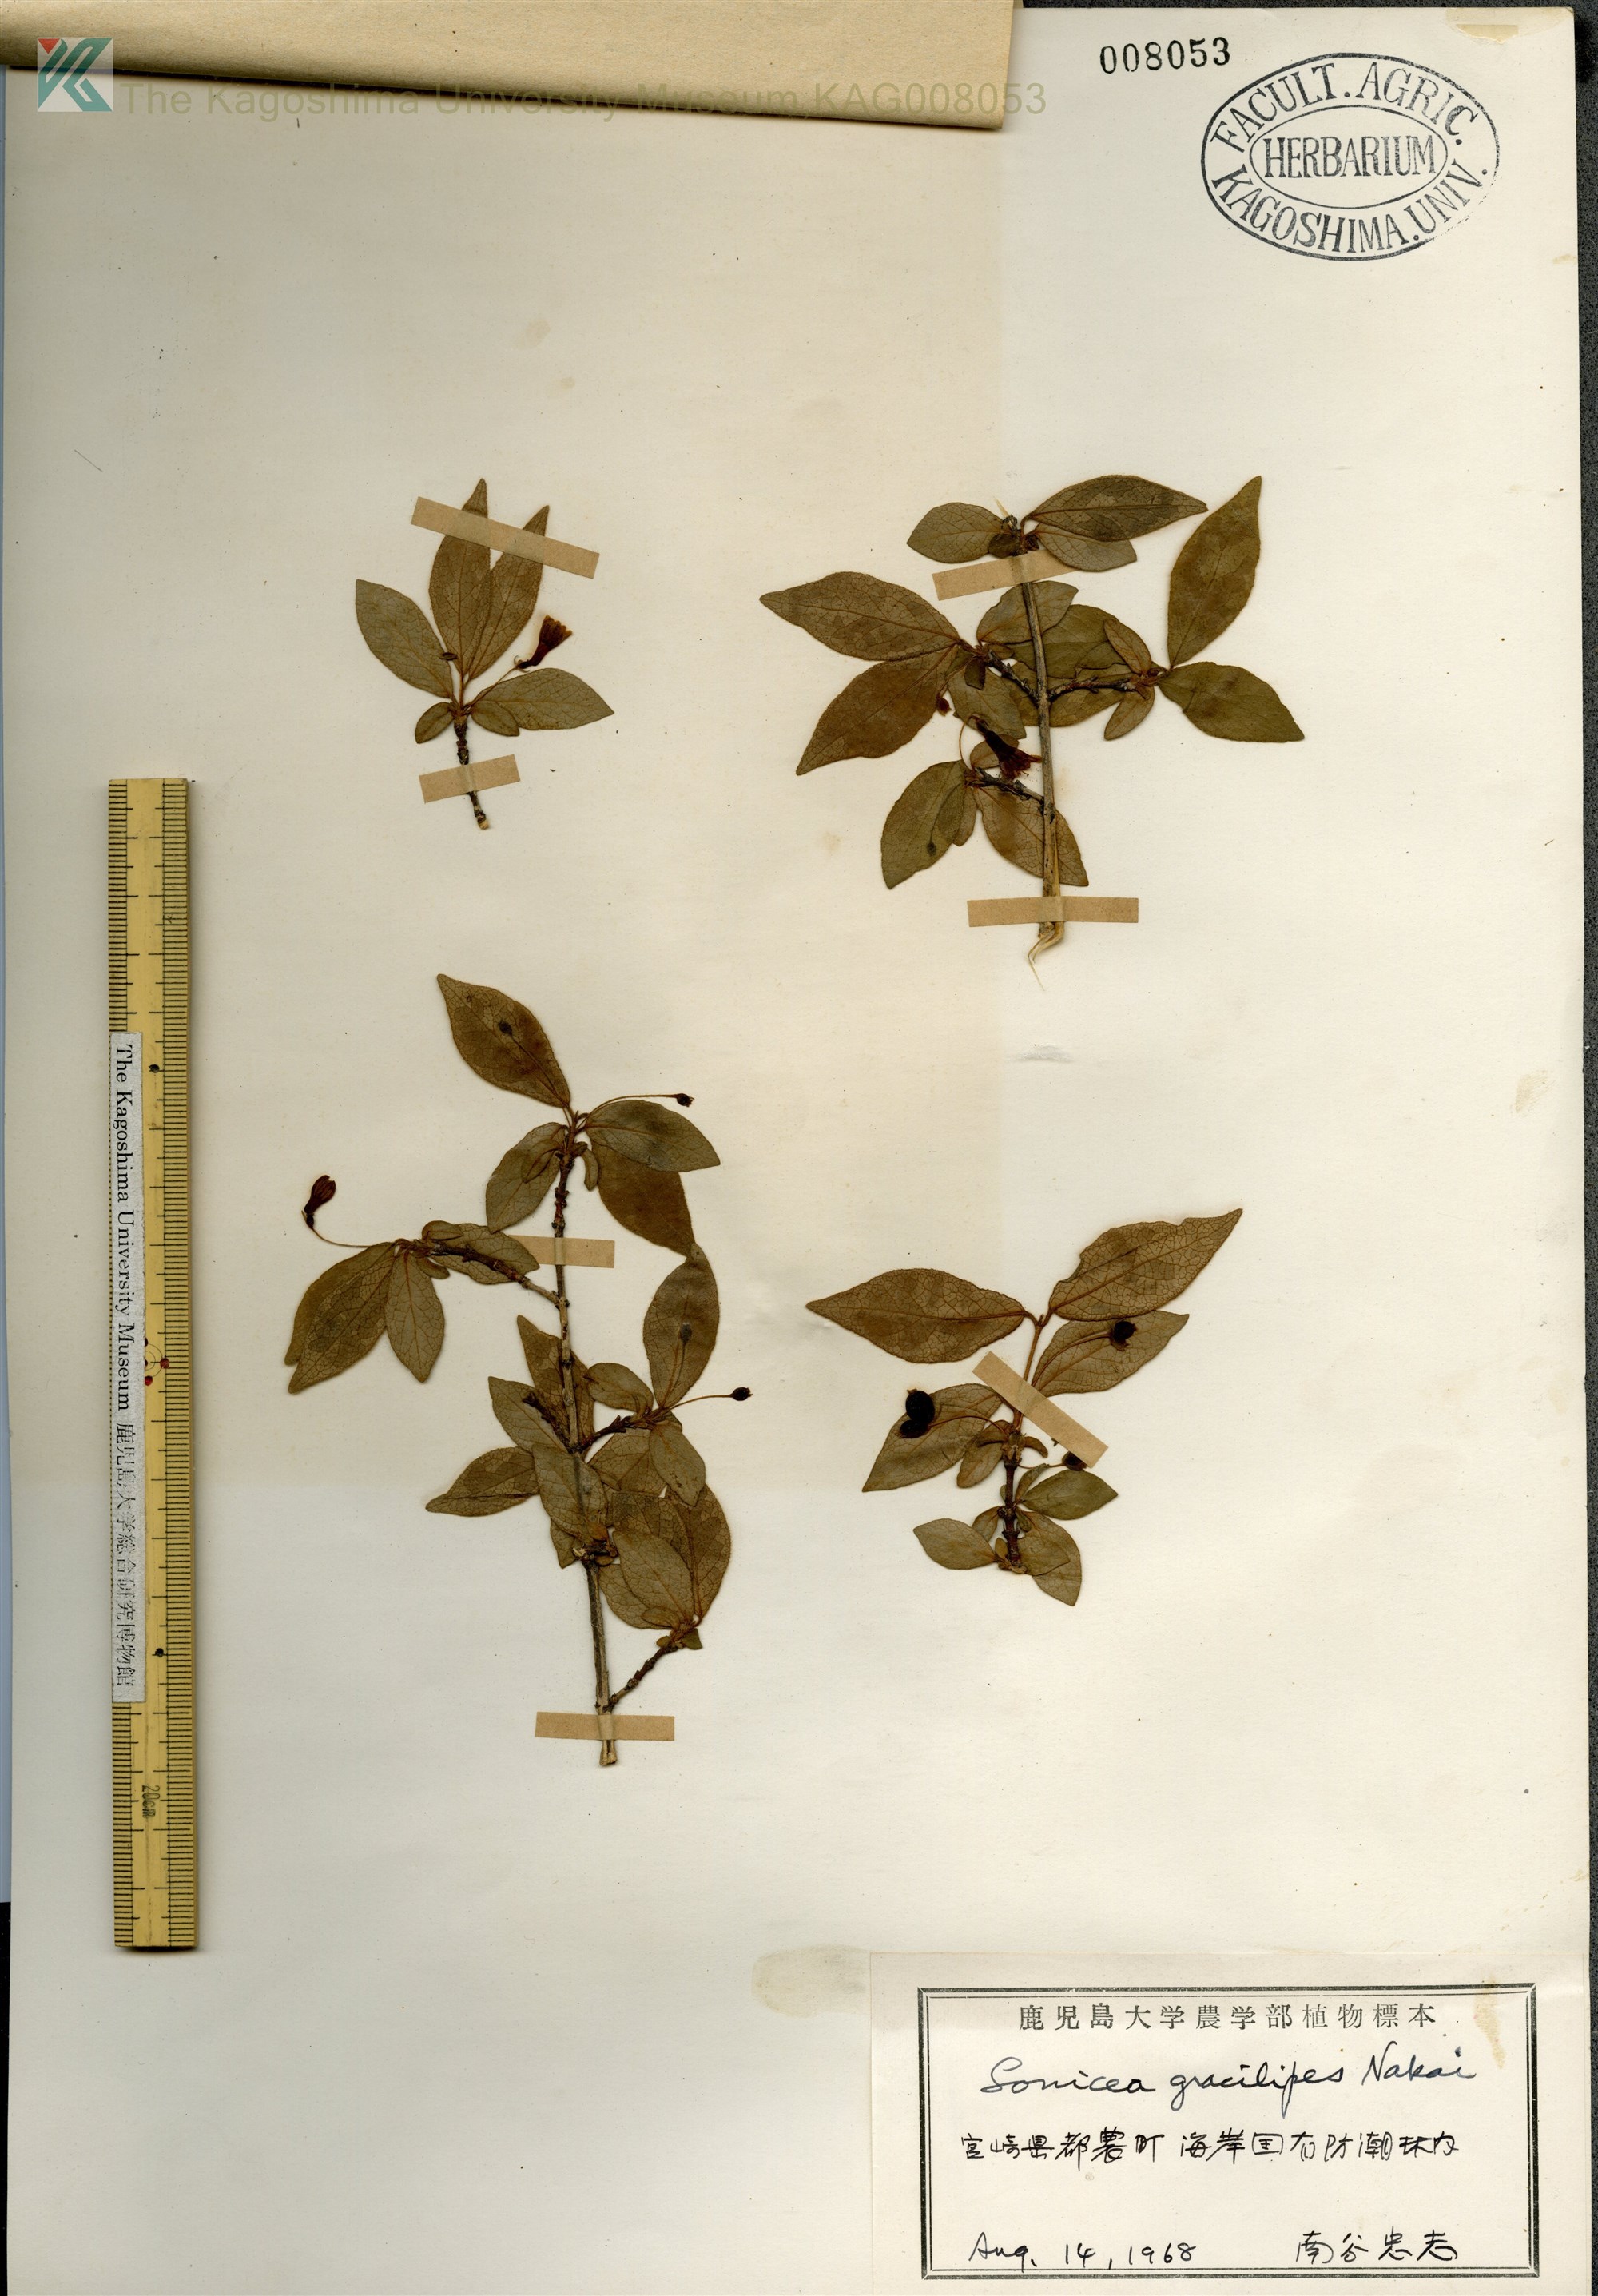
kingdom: Plantae
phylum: Tracheophyta
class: Magnoliopsida
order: Dipsacales
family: Caprifoliaceae
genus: Lonicera
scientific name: Lonicera gracilipes
